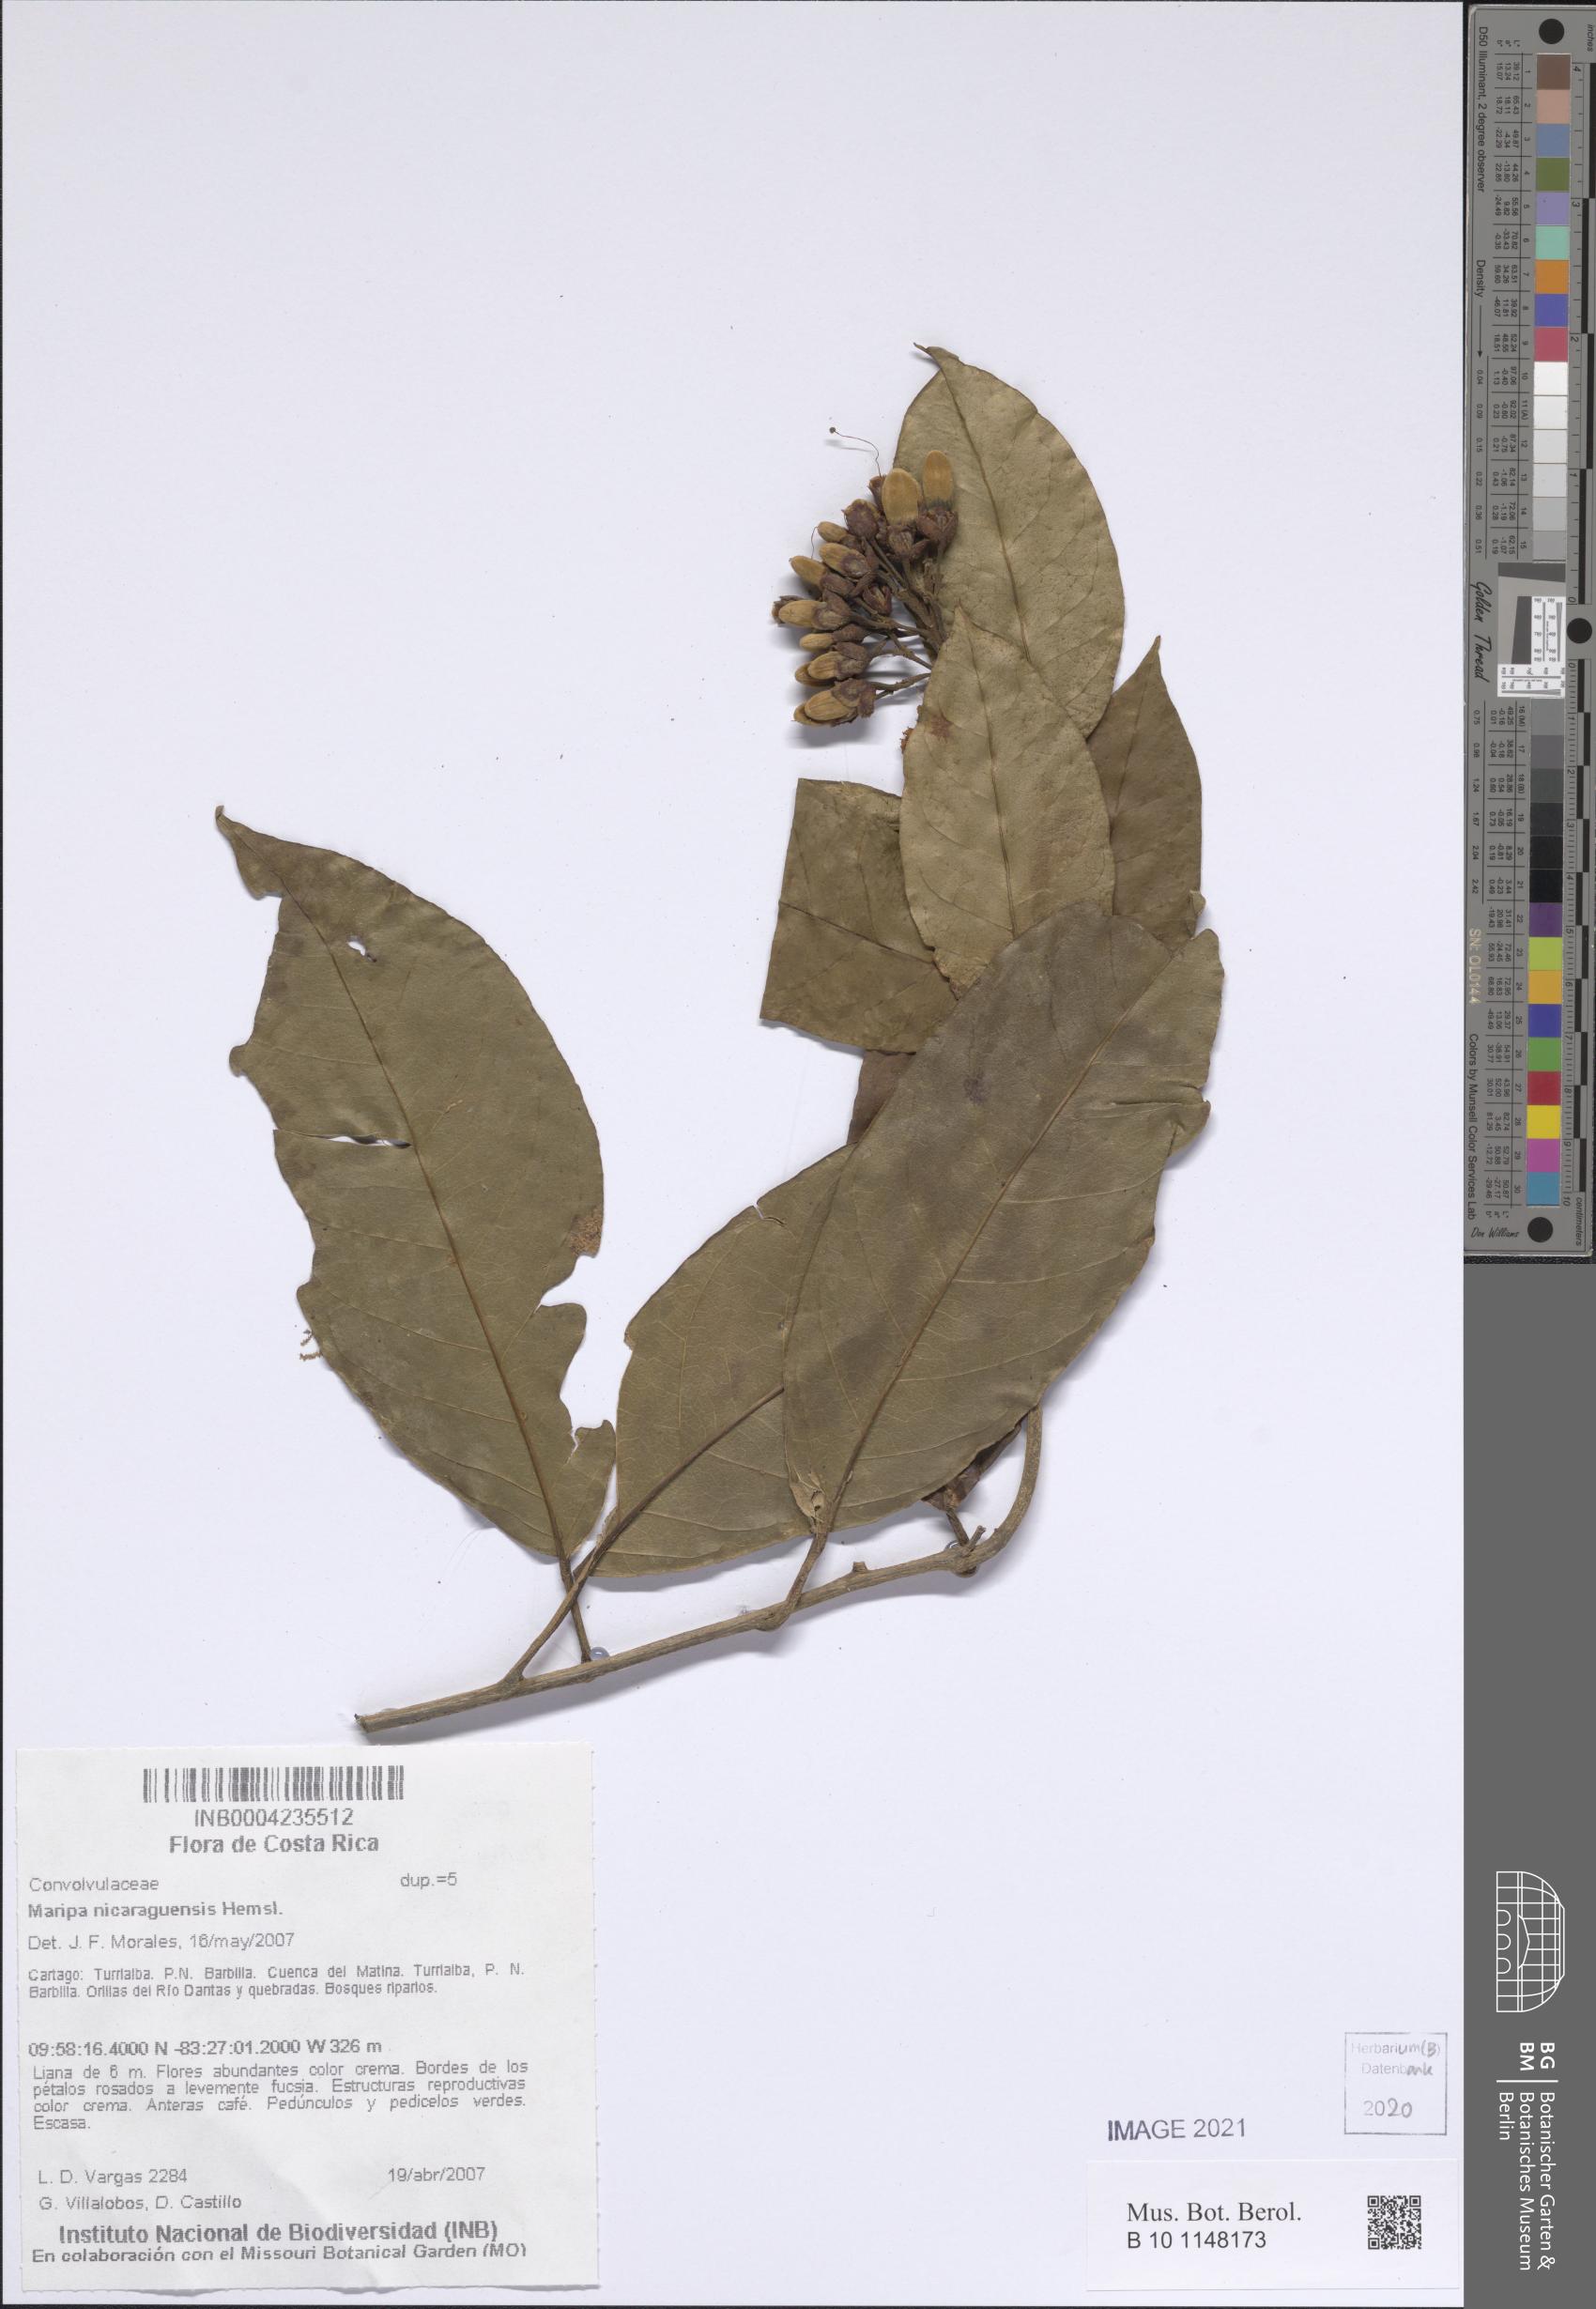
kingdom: Plantae
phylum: Tracheophyta
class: Magnoliopsida
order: Solanales
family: Convolvulaceae
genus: Maripa
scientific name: Maripa nicaraguensis
